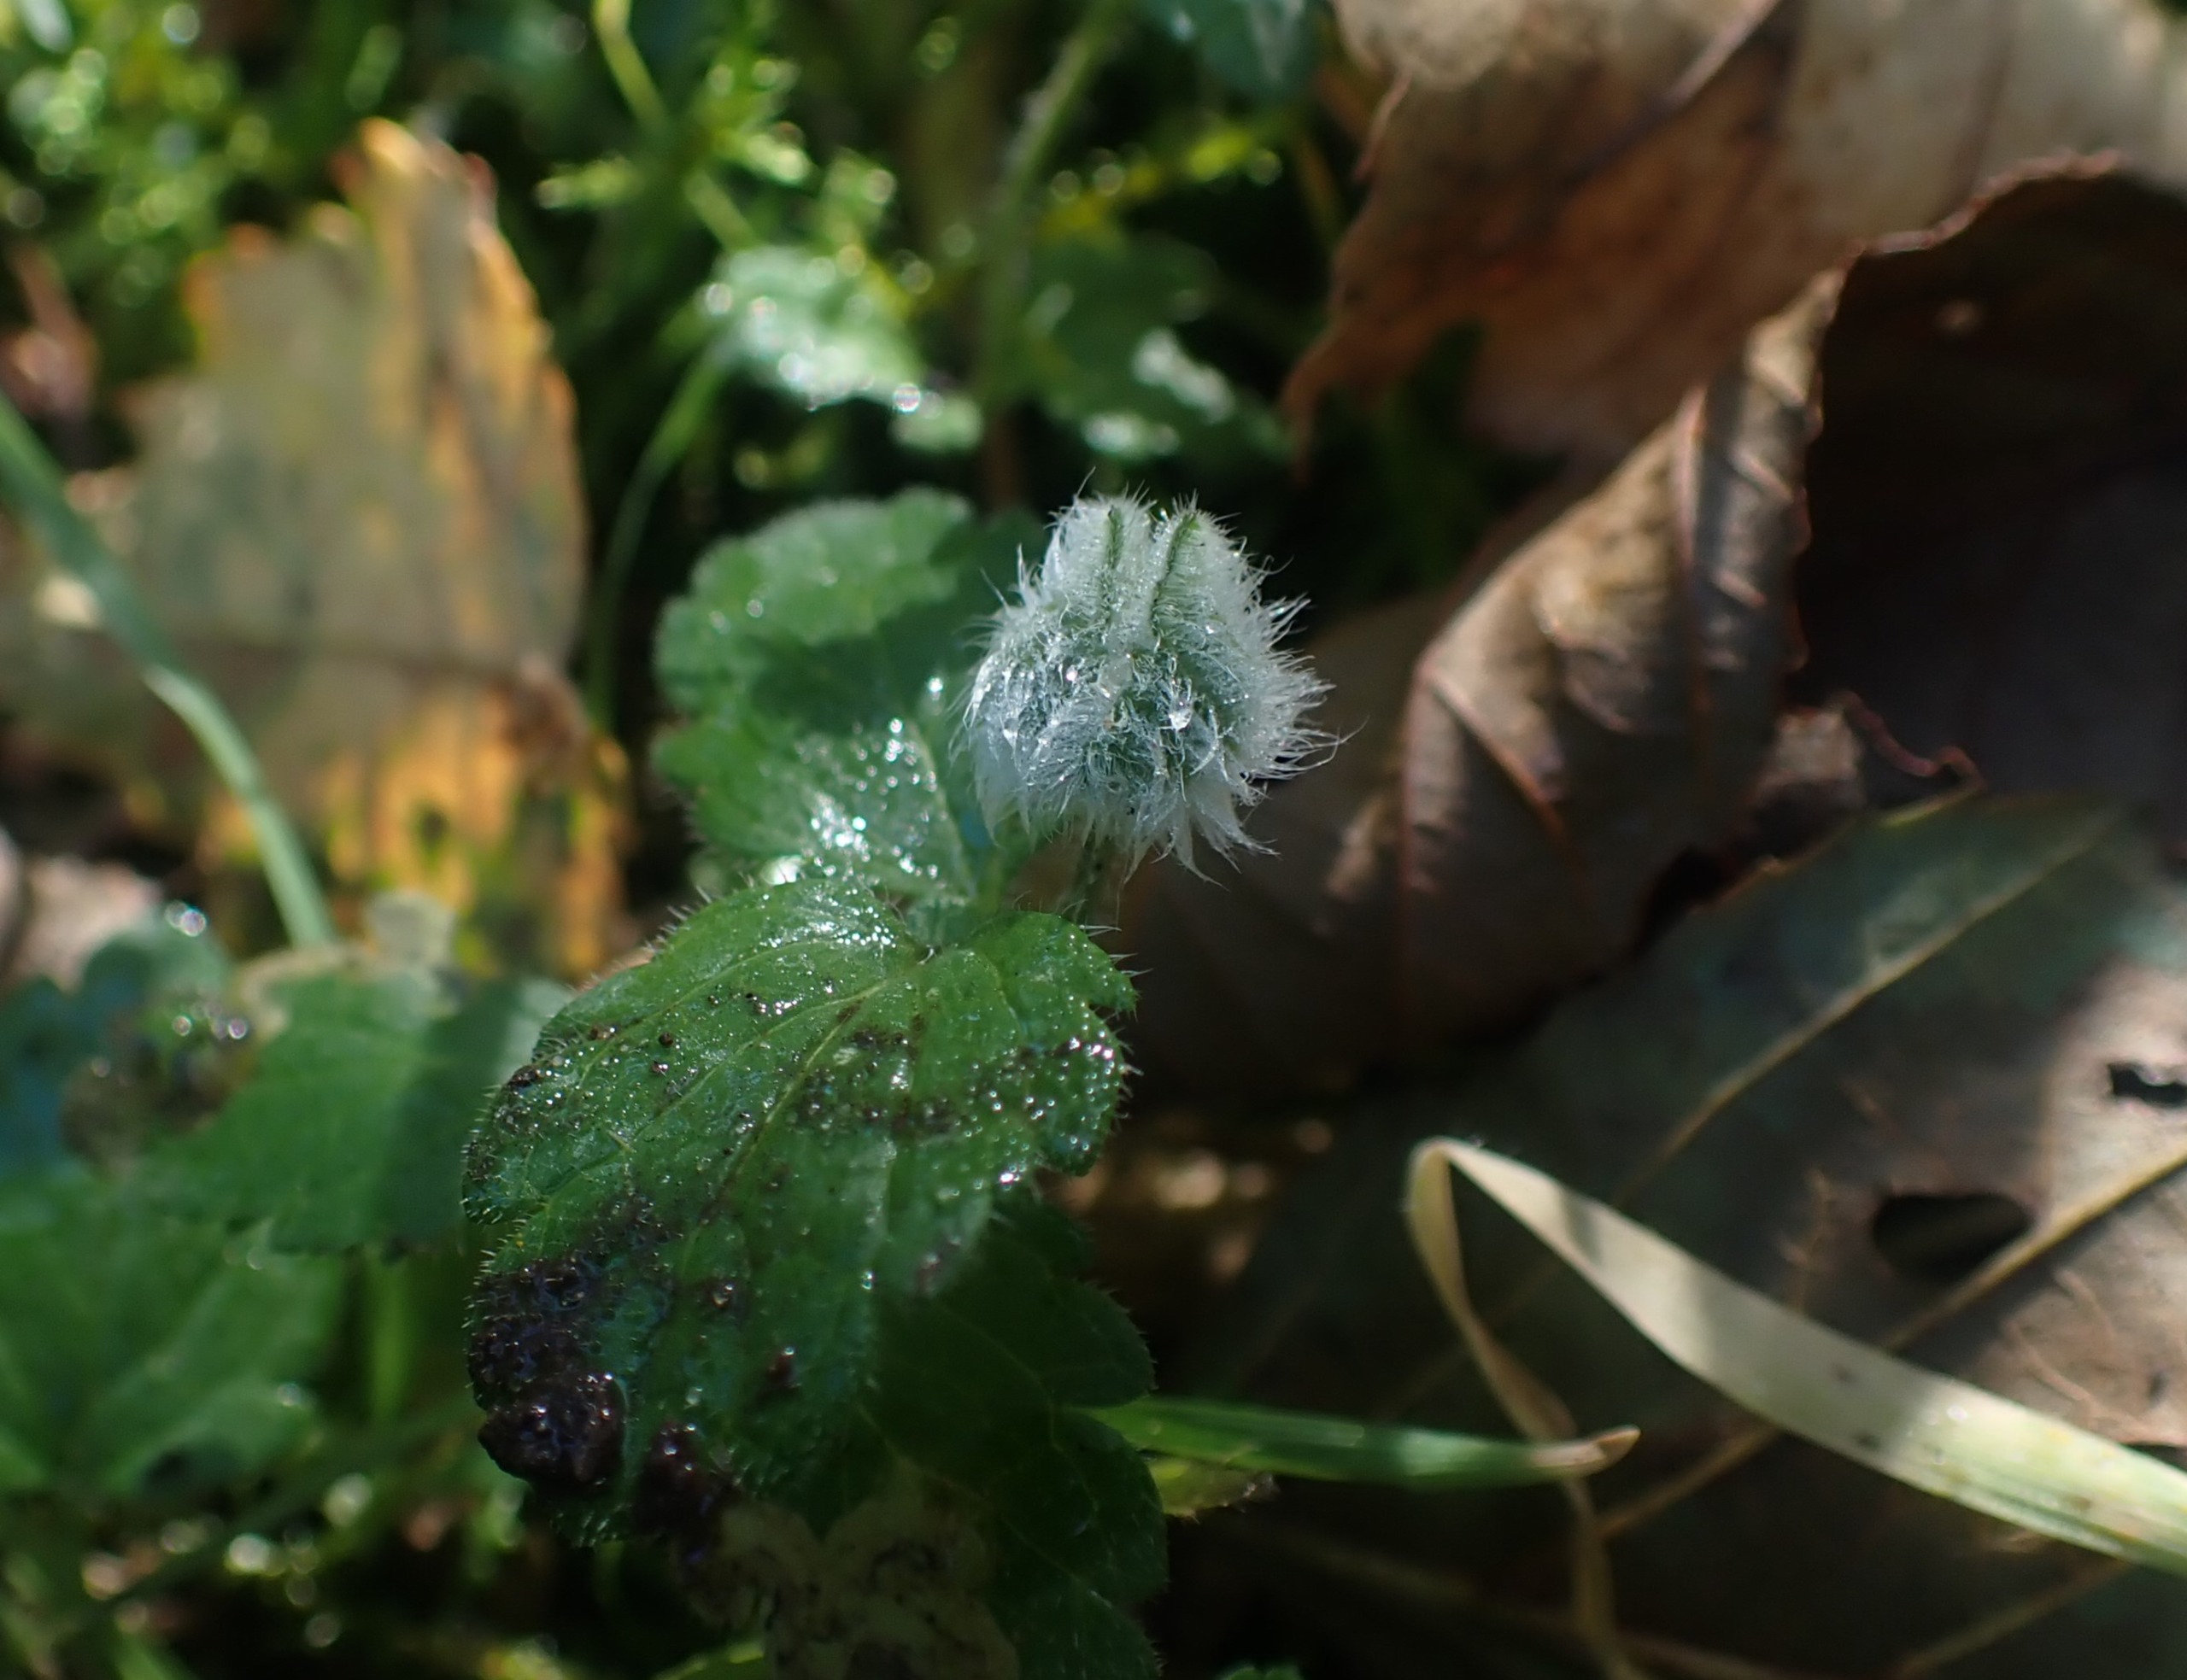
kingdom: Animalia
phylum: Arthropoda
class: Insecta
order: Diptera
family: Cecidomyiidae
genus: Jaapiella
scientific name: Jaapiella veronicae
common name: Ærenprisgalmyg
